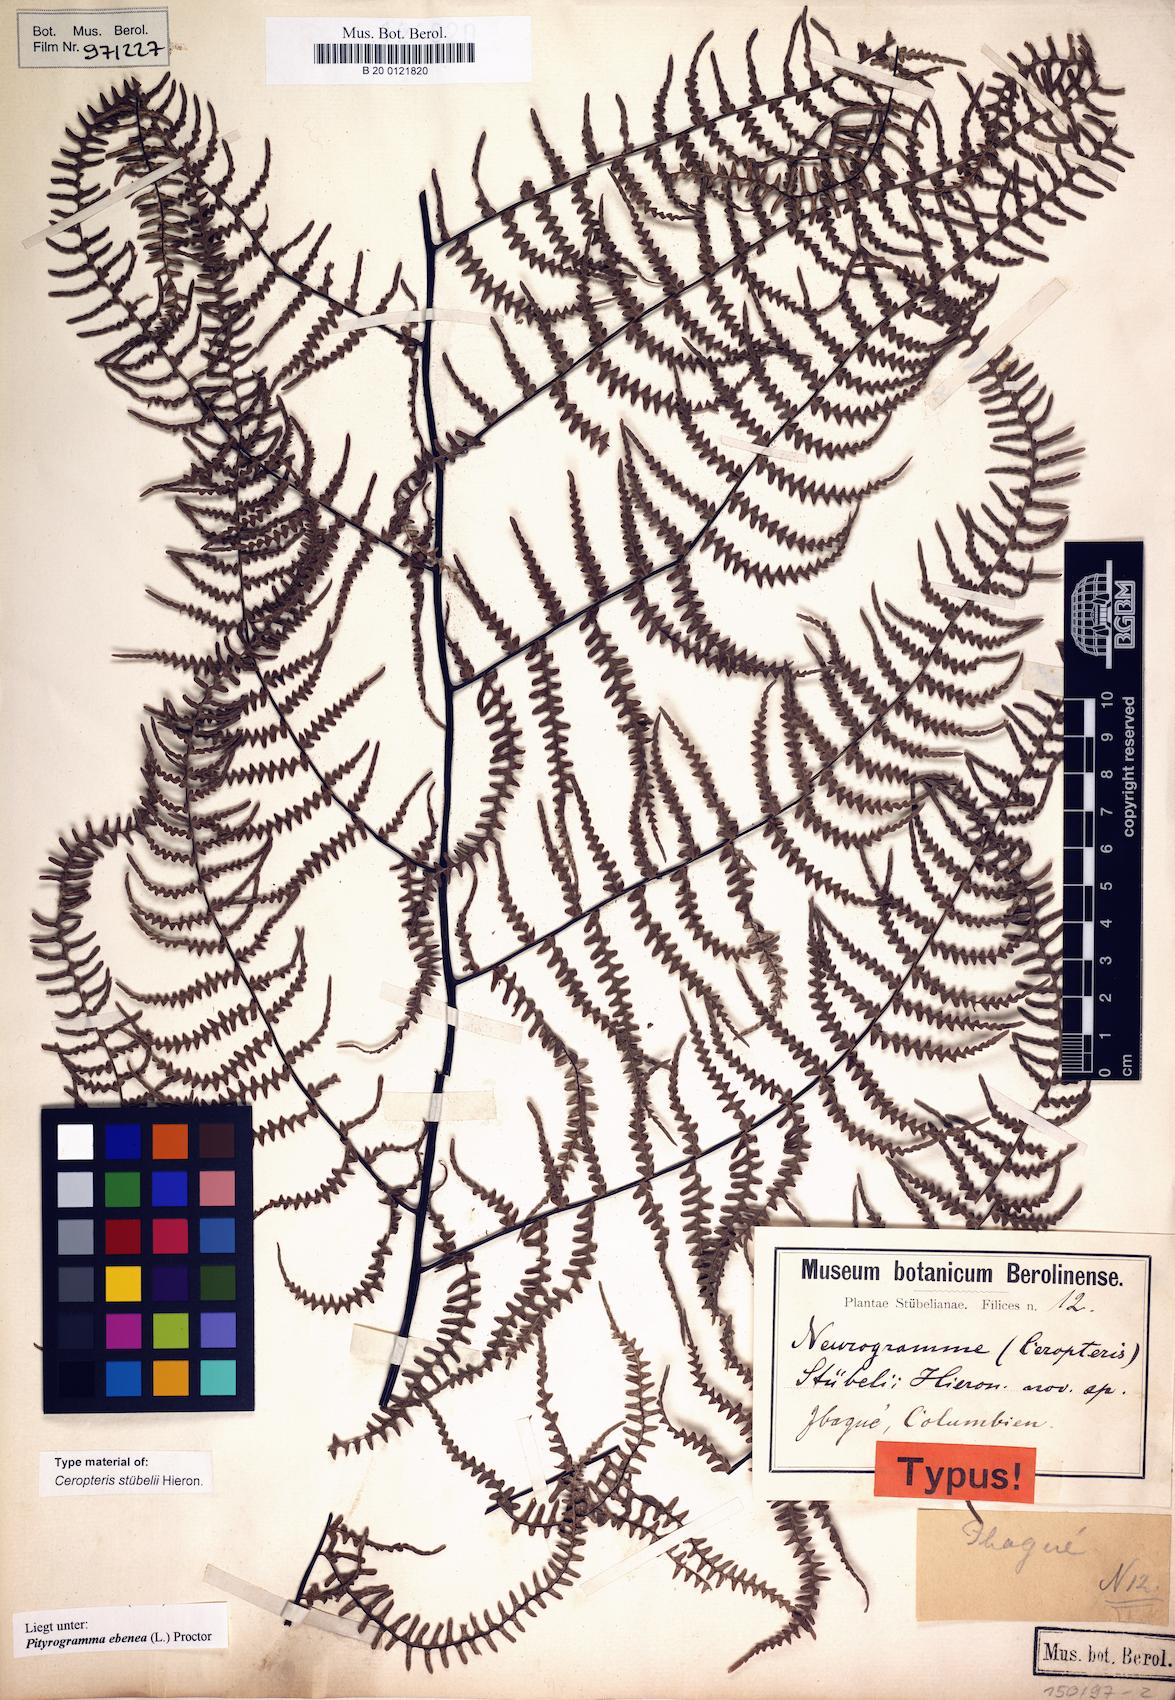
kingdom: Plantae
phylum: Tracheophyta
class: Polypodiopsida
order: Polypodiales
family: Pteridaceae
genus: Pityrogramma
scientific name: Pityrogramma ebenea
